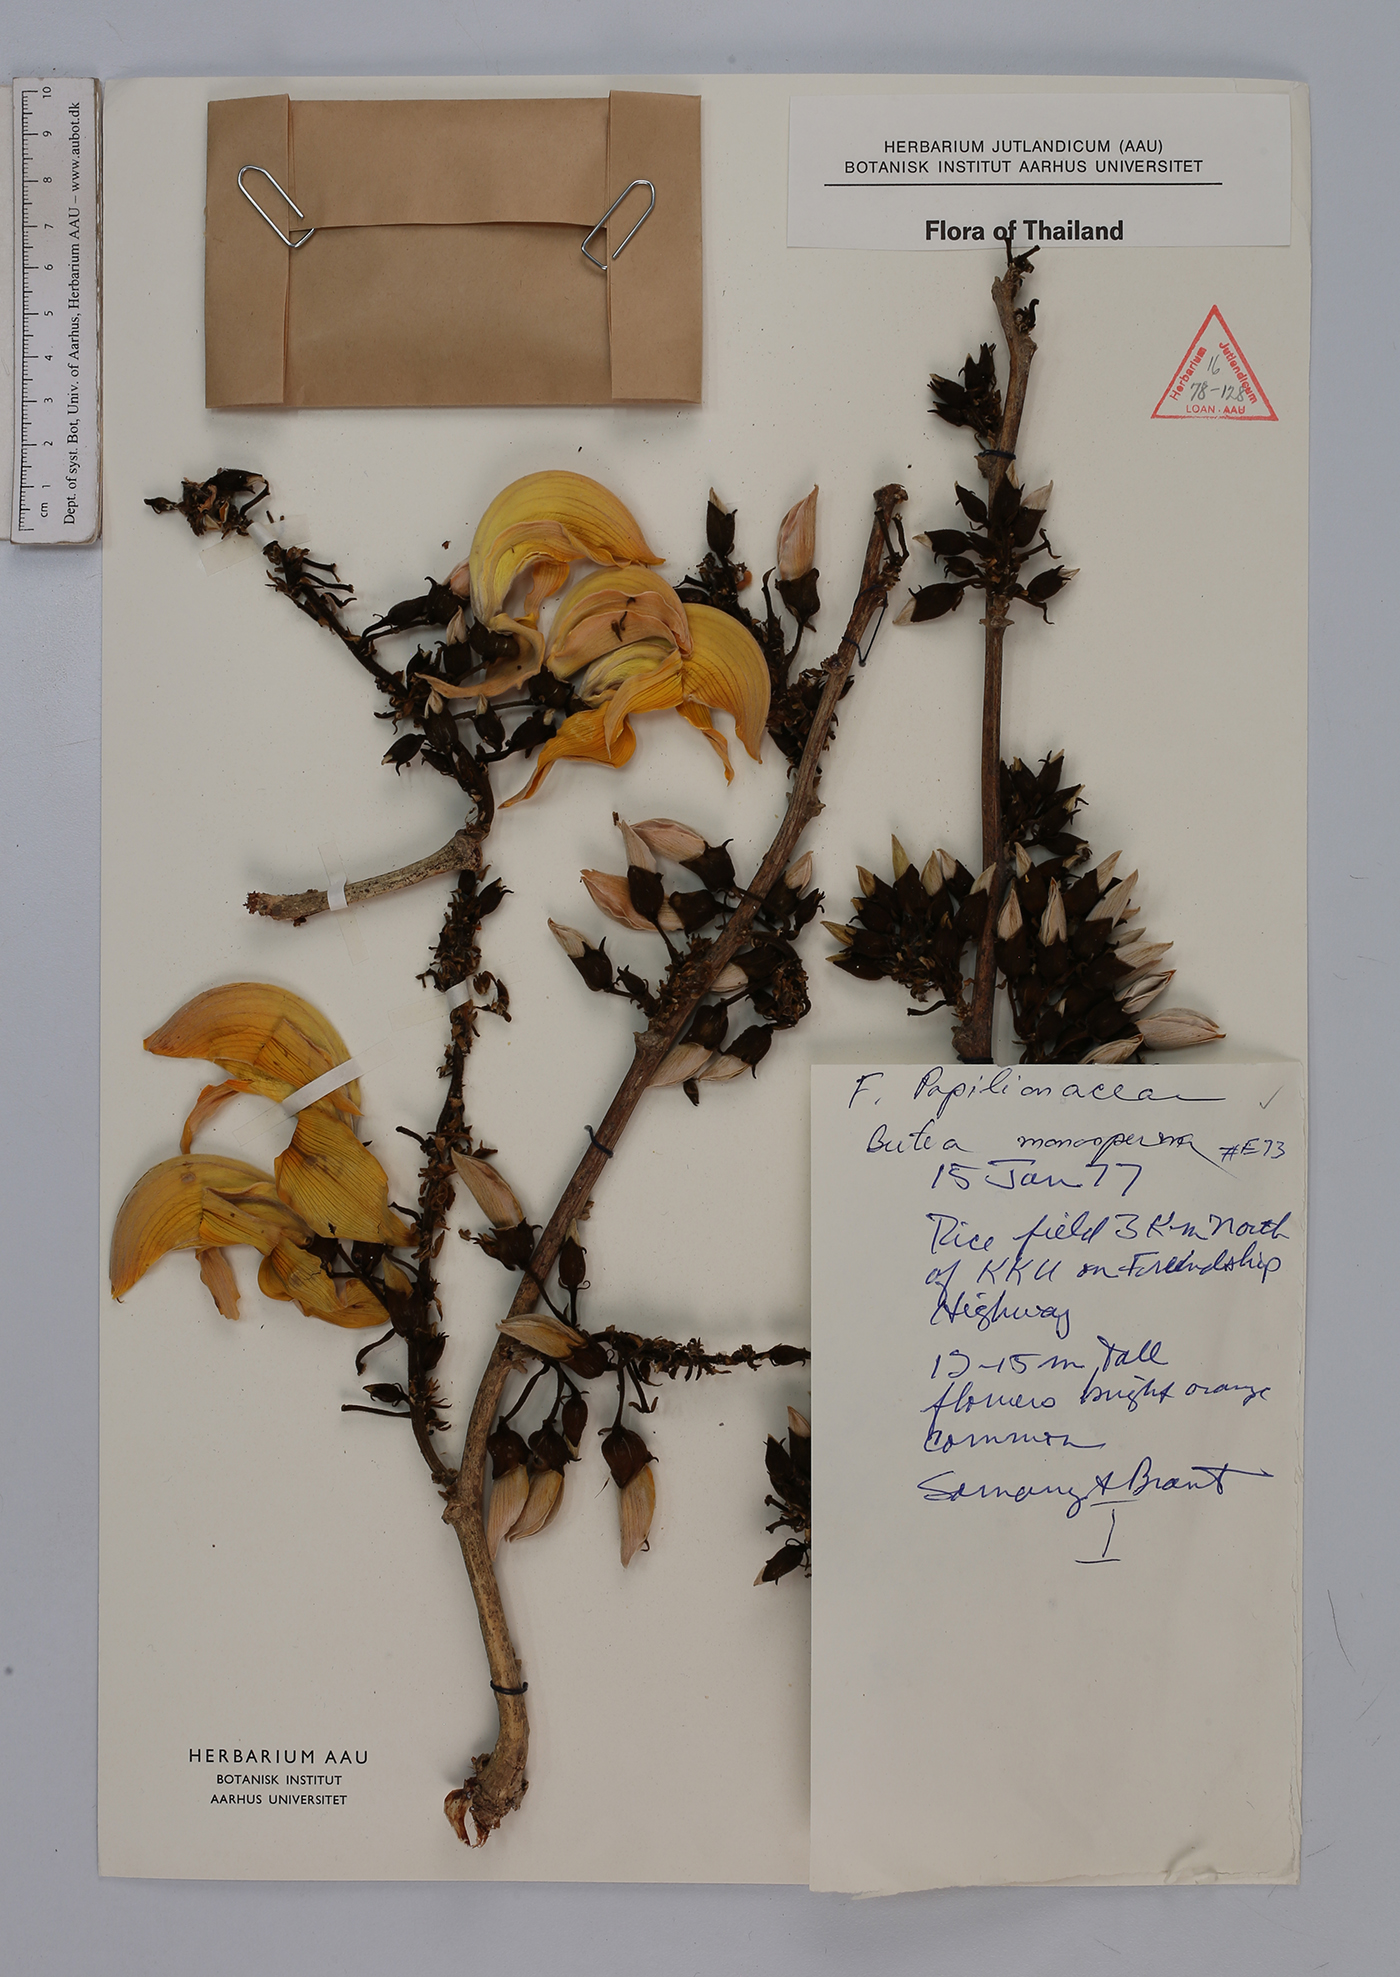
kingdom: Plantae
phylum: Tracheophyta
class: Magnoliopsida
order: Fabales
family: Fabaceae
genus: Butea
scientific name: Butea monosperma
